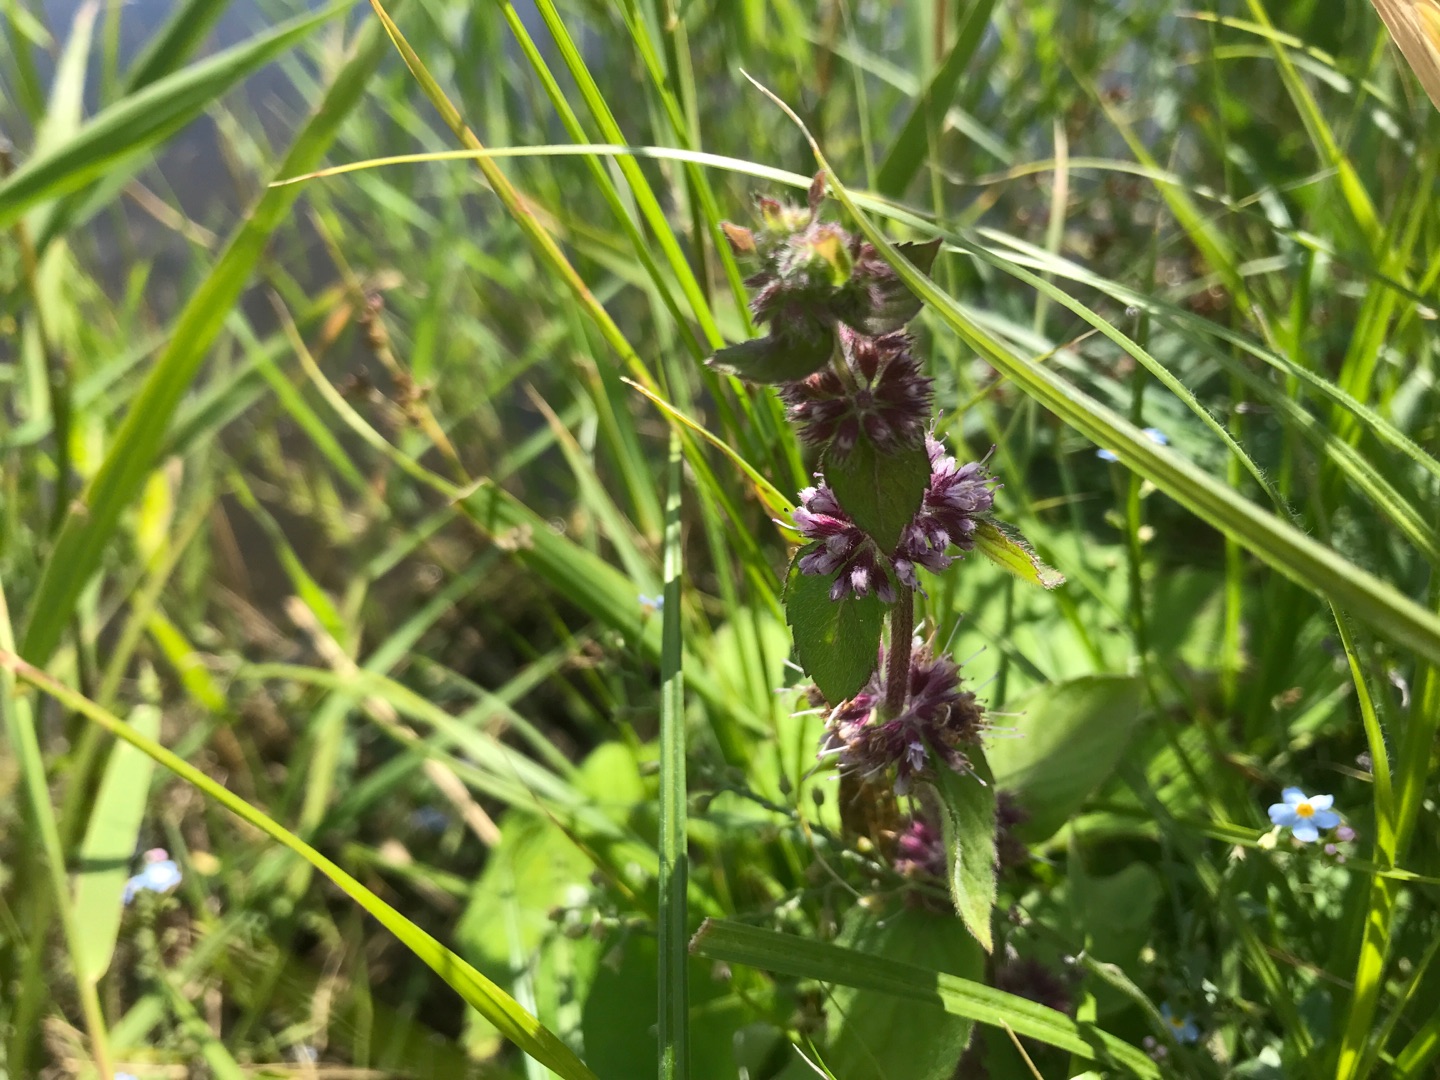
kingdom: Plantae
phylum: Tracheophyta
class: Magnoliopsida
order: Lamiales
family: Lamiaceae
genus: Mentha
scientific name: Mentha verticillata
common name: Krans-mynte
